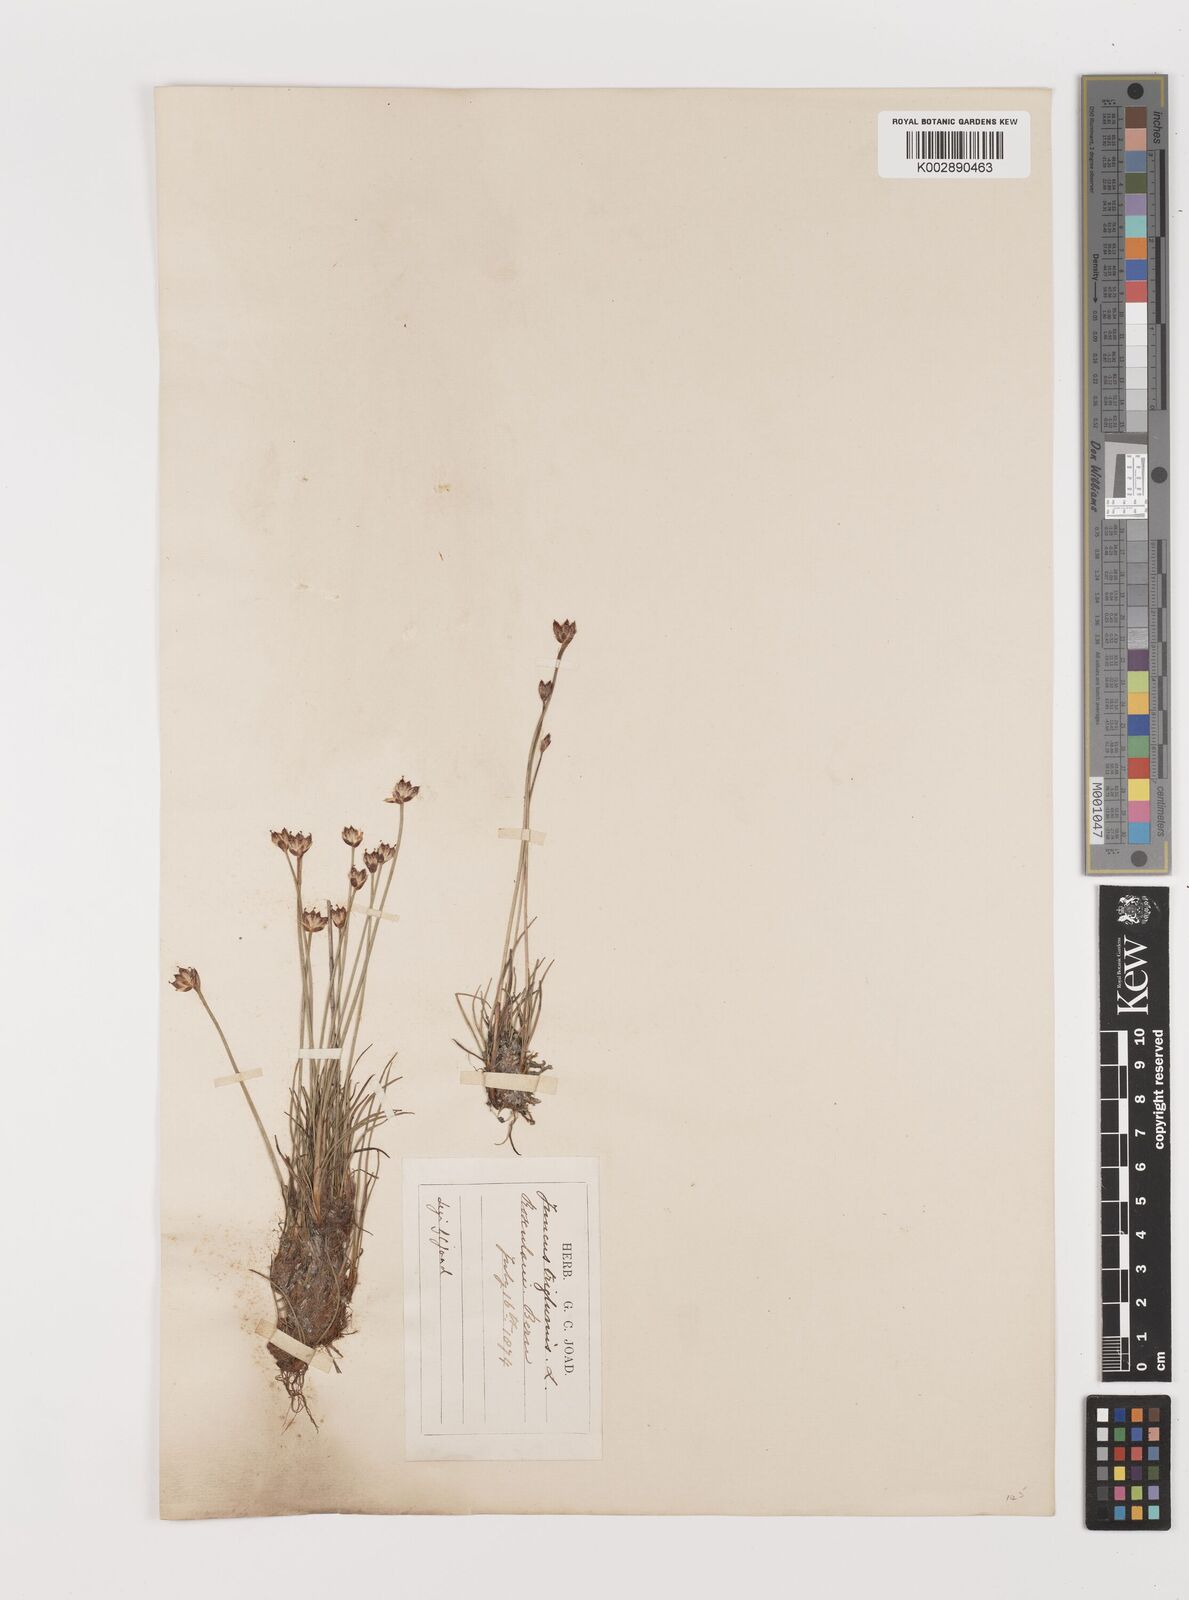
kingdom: Plantae
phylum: Tracheophyta
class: Liliopsida
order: Poales
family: Juncaceae
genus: Juncus
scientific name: Juncus triglumis
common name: Three-flowered rush
